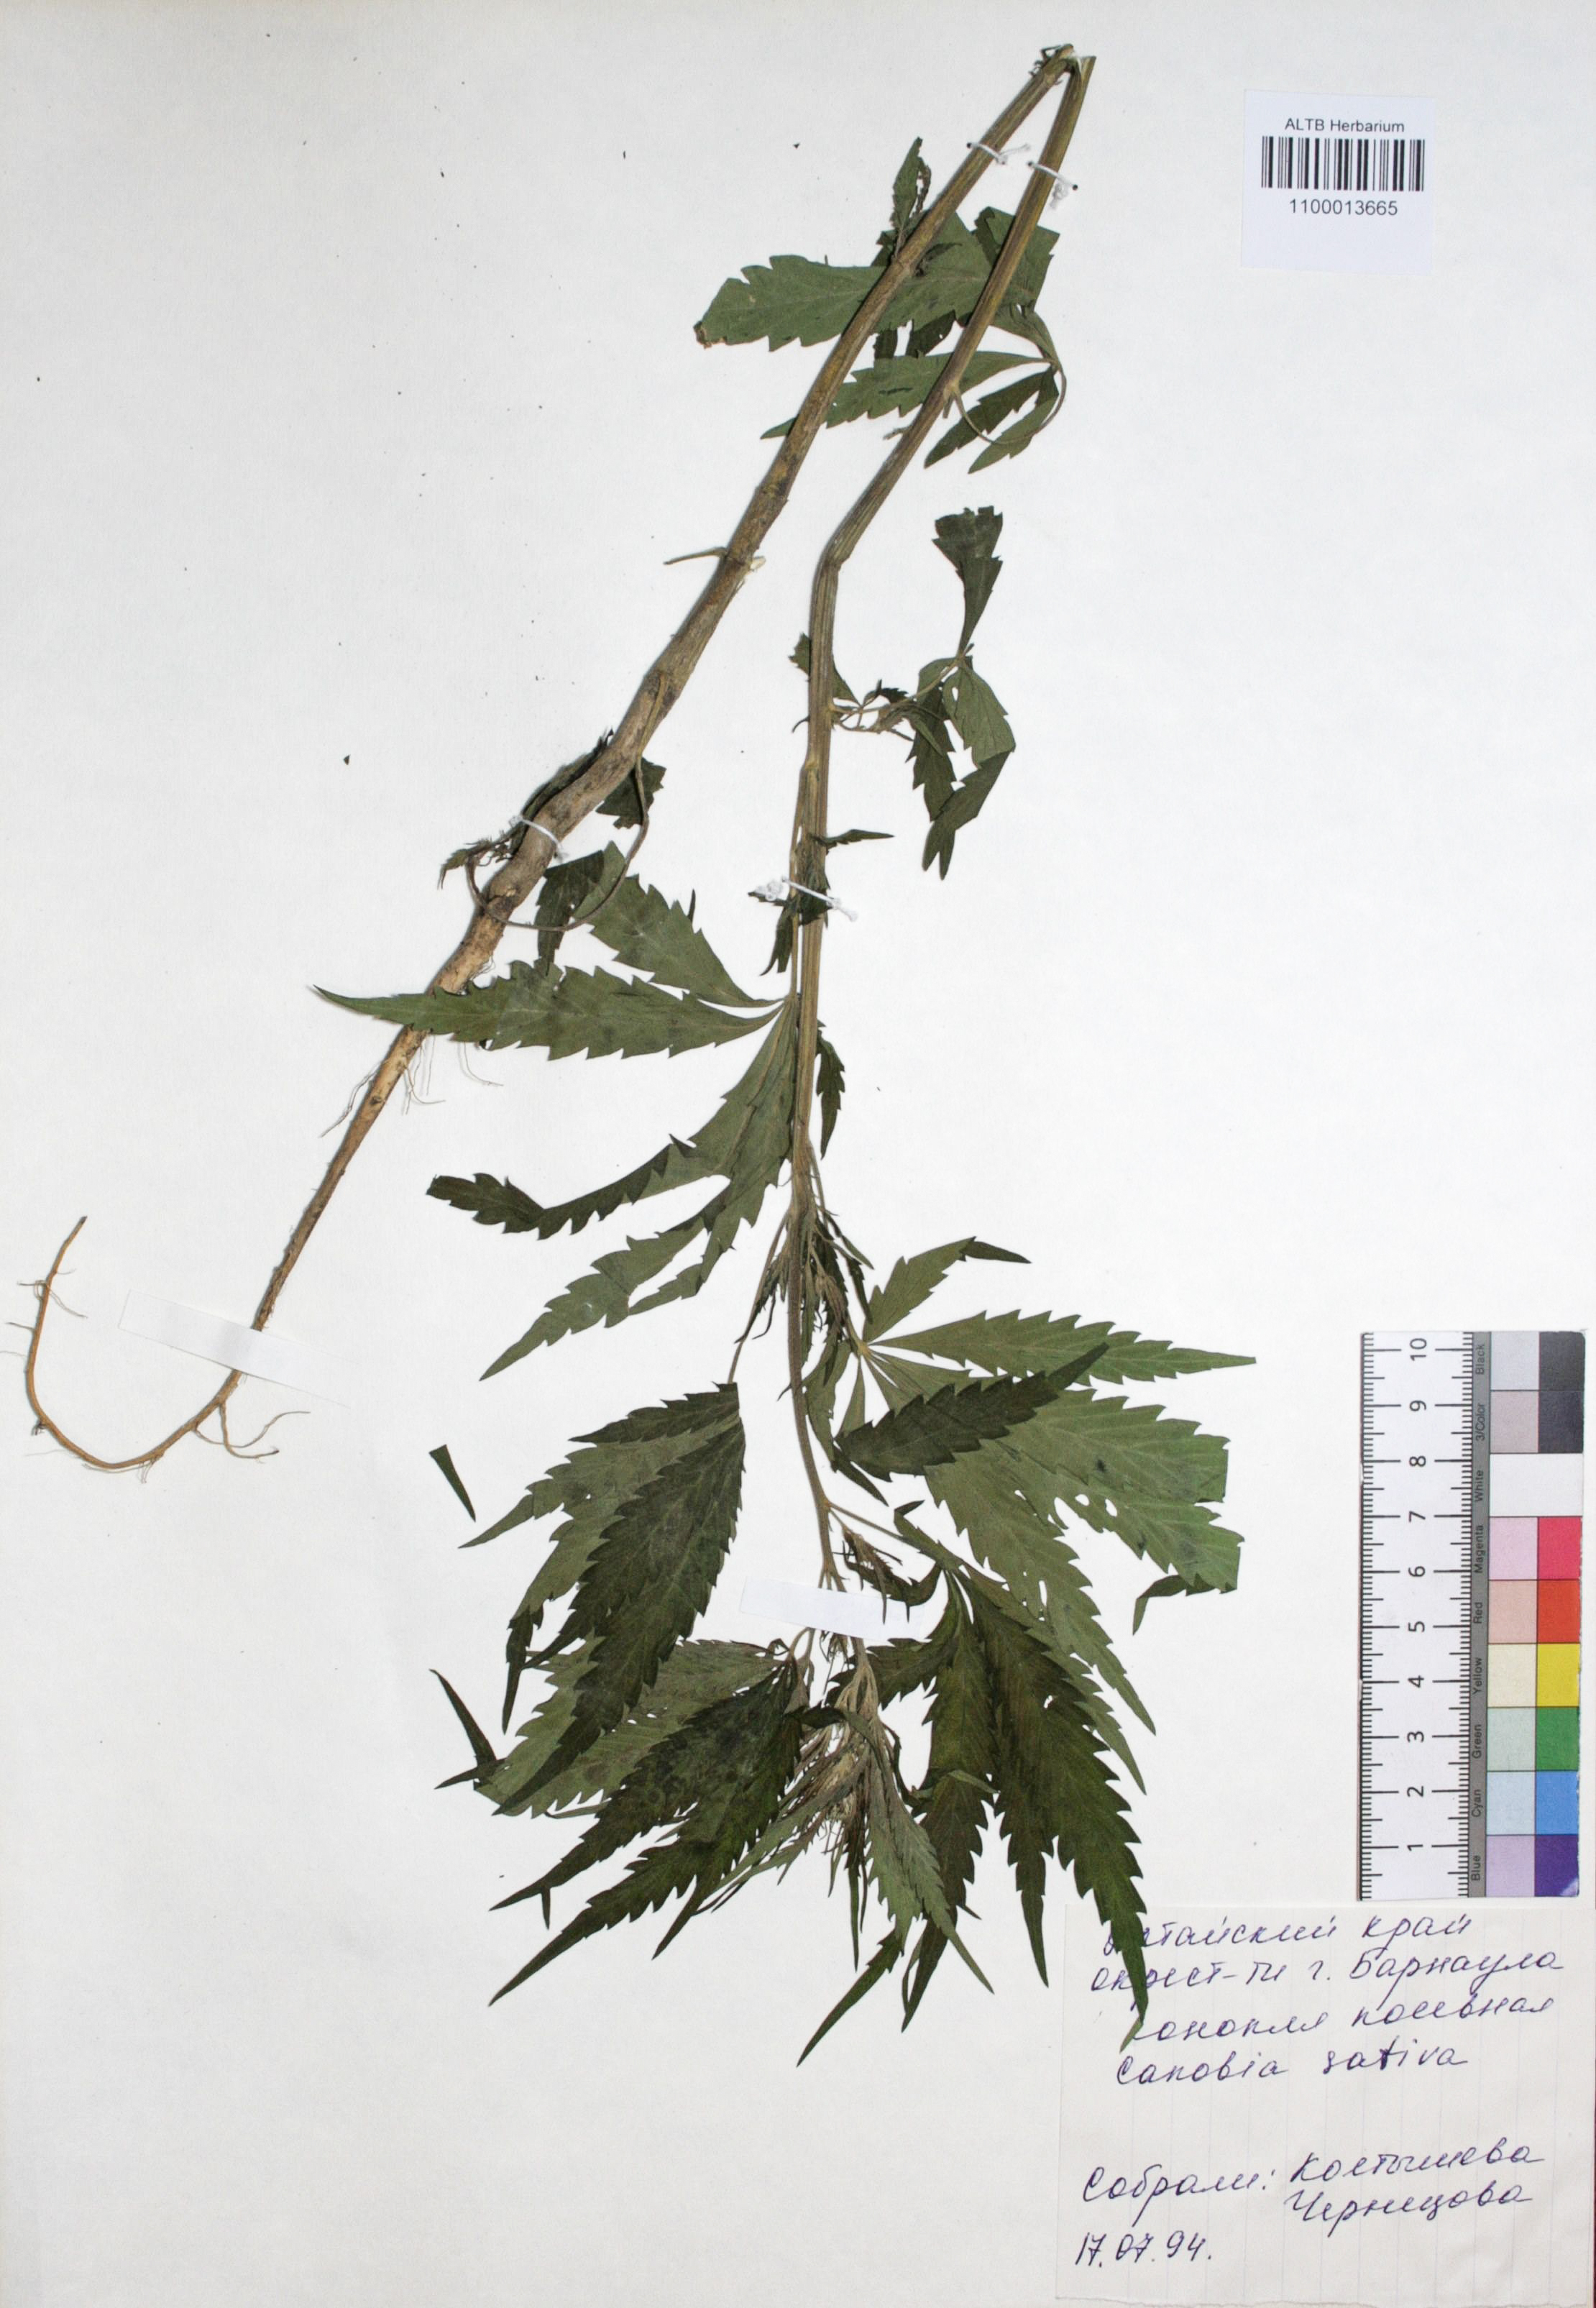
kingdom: Plantae
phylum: Tracheophyta
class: Magnoliopsida
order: Rosales
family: Cannabaceae
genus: Cannabis
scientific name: Cannabis sativa
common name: Hemp
